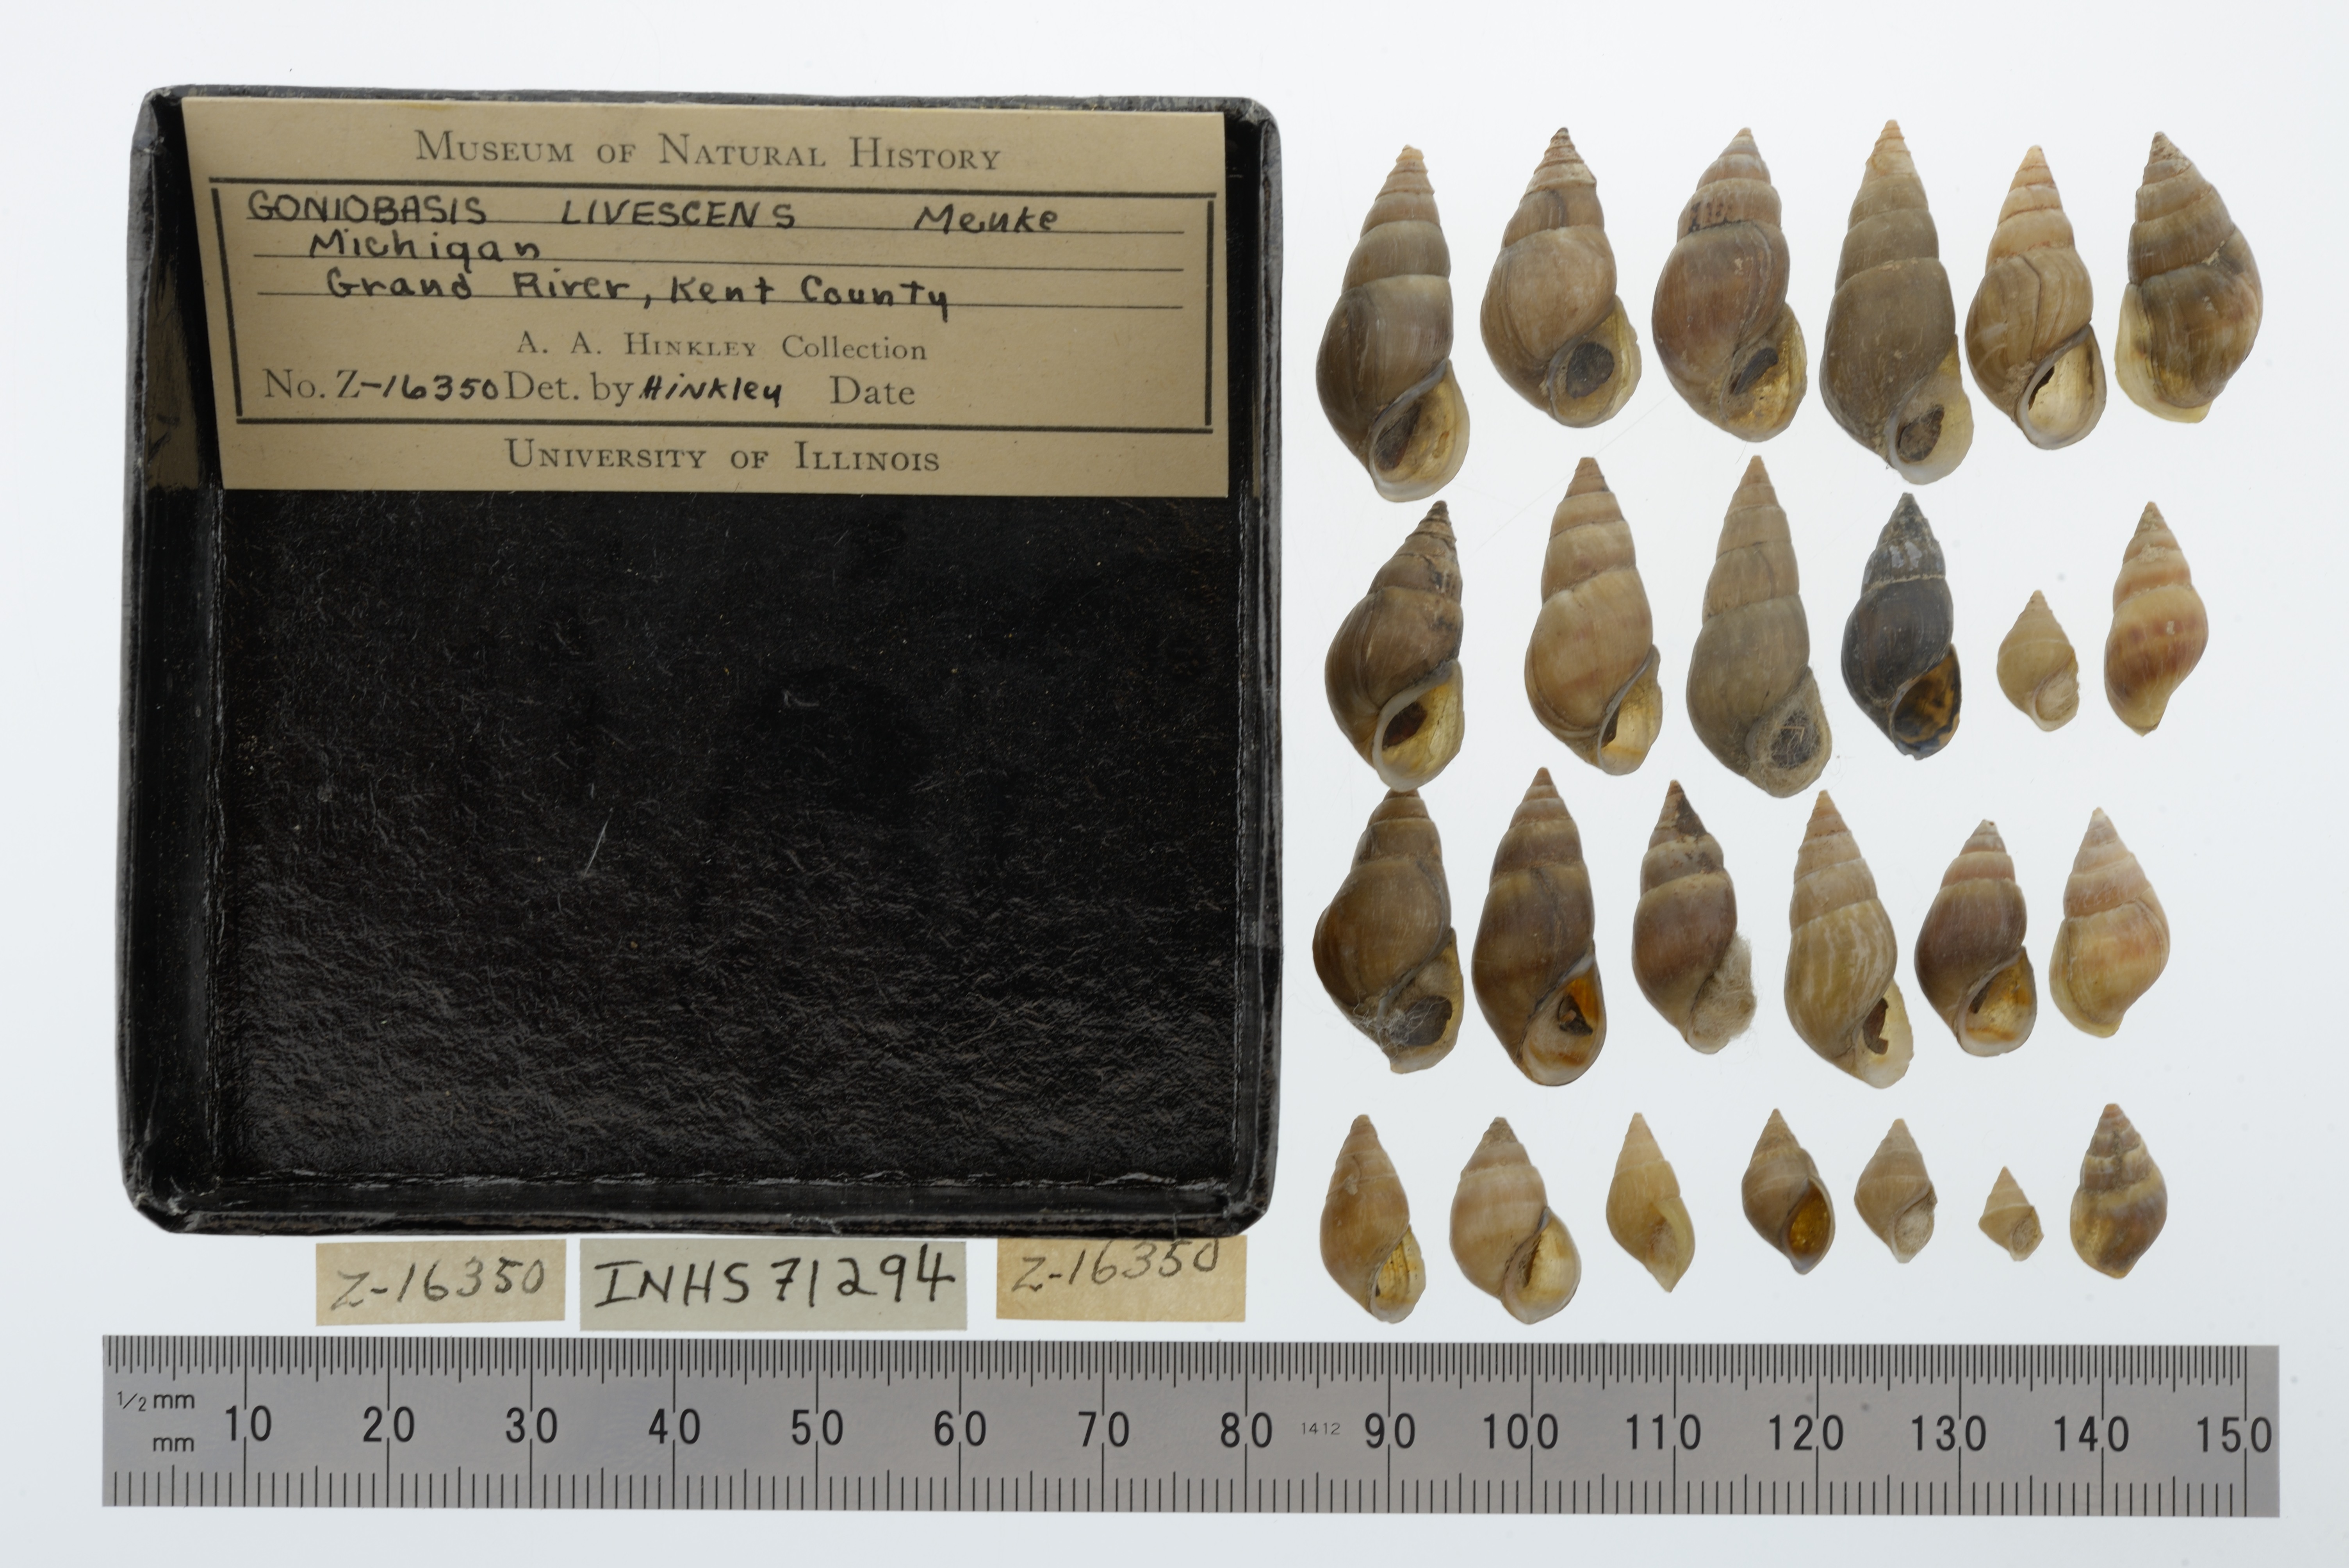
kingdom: Animalia
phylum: Mollusca
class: Gastropoda
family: Pleuroceridae
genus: Elimia
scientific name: Elimia livescens
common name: Liver elimia
